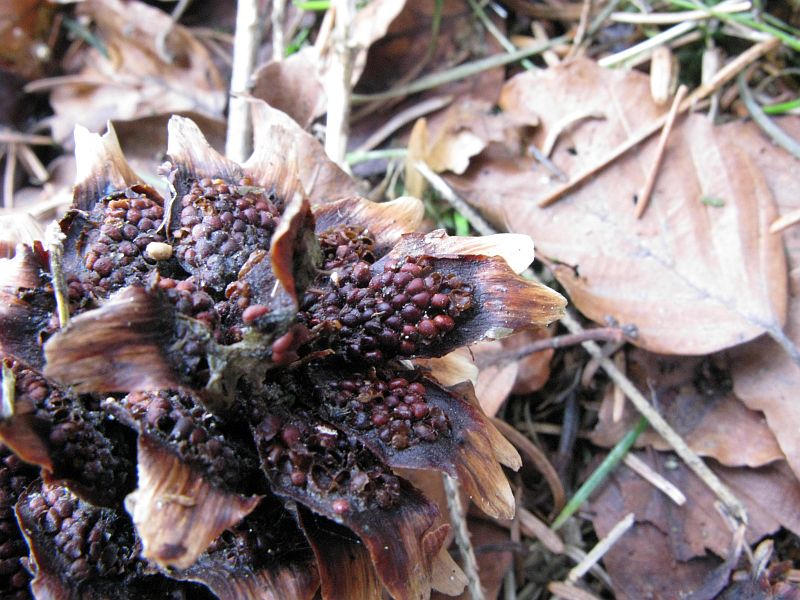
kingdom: Fungi
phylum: Basidiomycota
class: Pucciniomycetes
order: Pucciniales
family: Pucciniastraceae
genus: Thekopsora
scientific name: Thekopsora areolata
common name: grankogle-nålerust
